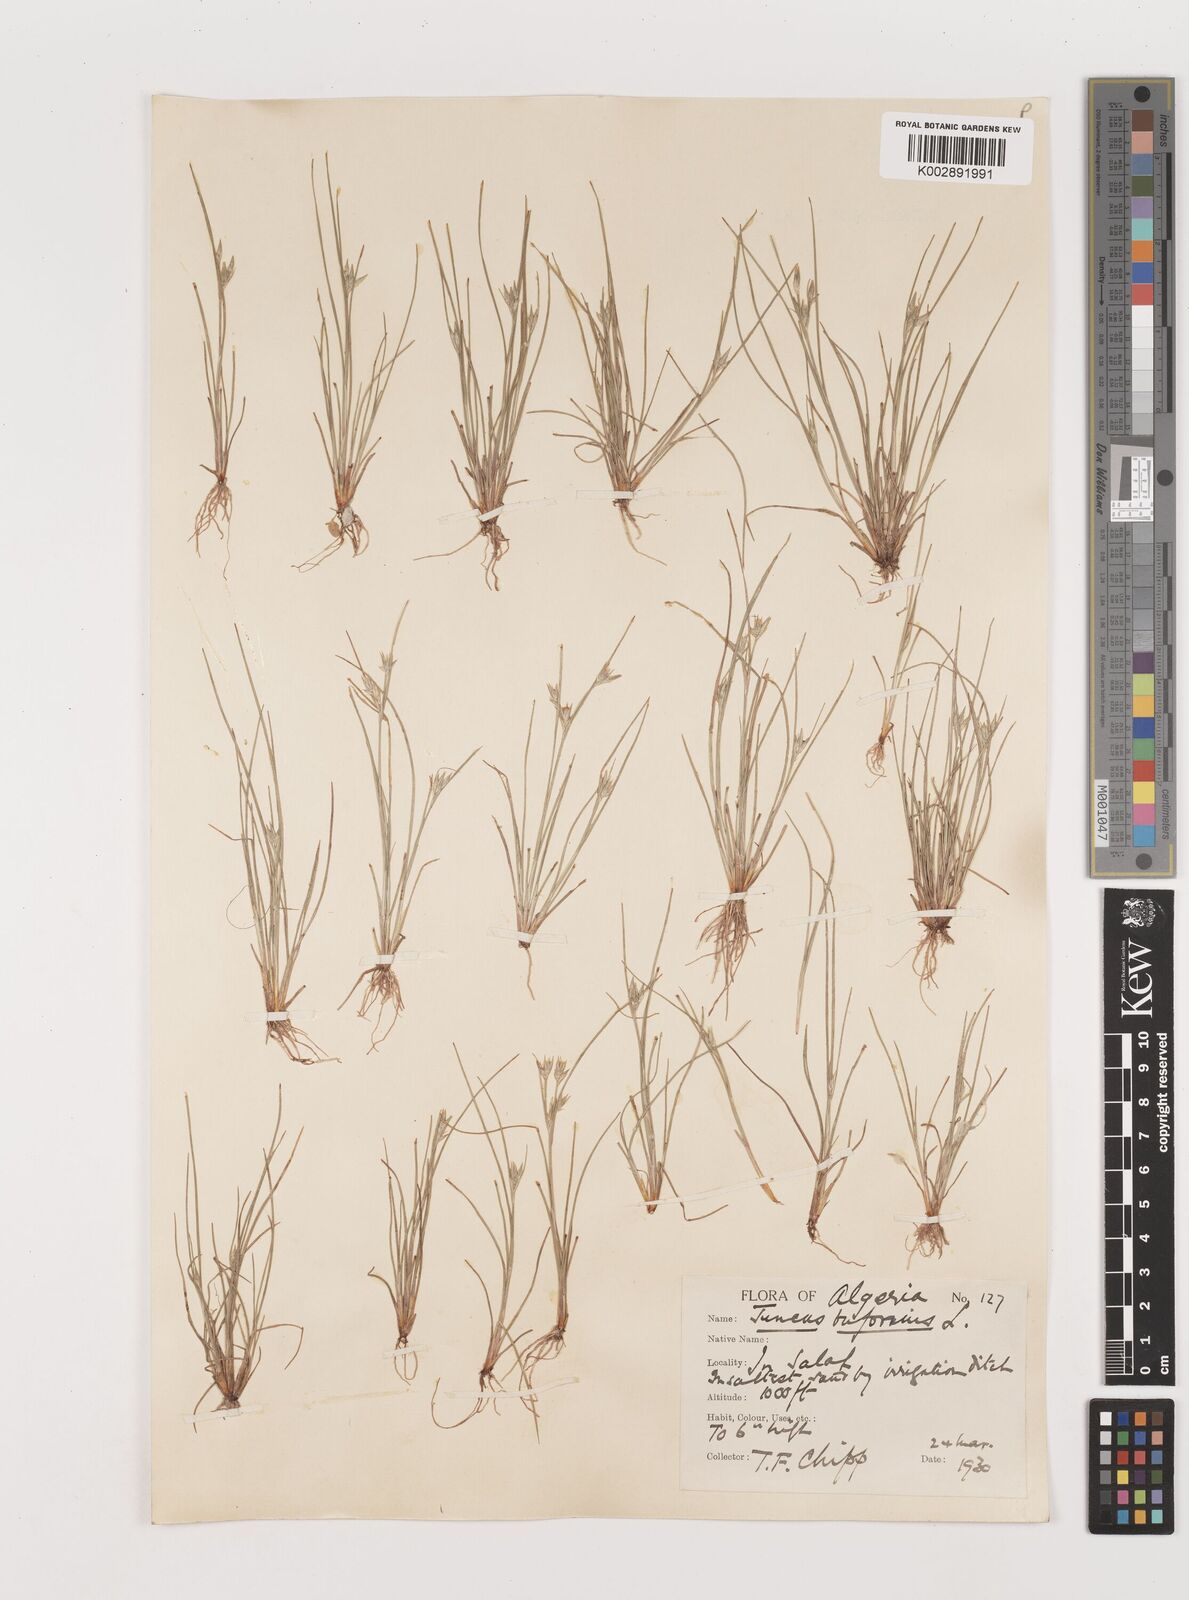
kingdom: Plantae
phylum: Tracheophyta
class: Liliopsida
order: Poales
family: Juncaceae
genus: Juncus
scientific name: Juncus bufonius
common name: Toad rush
